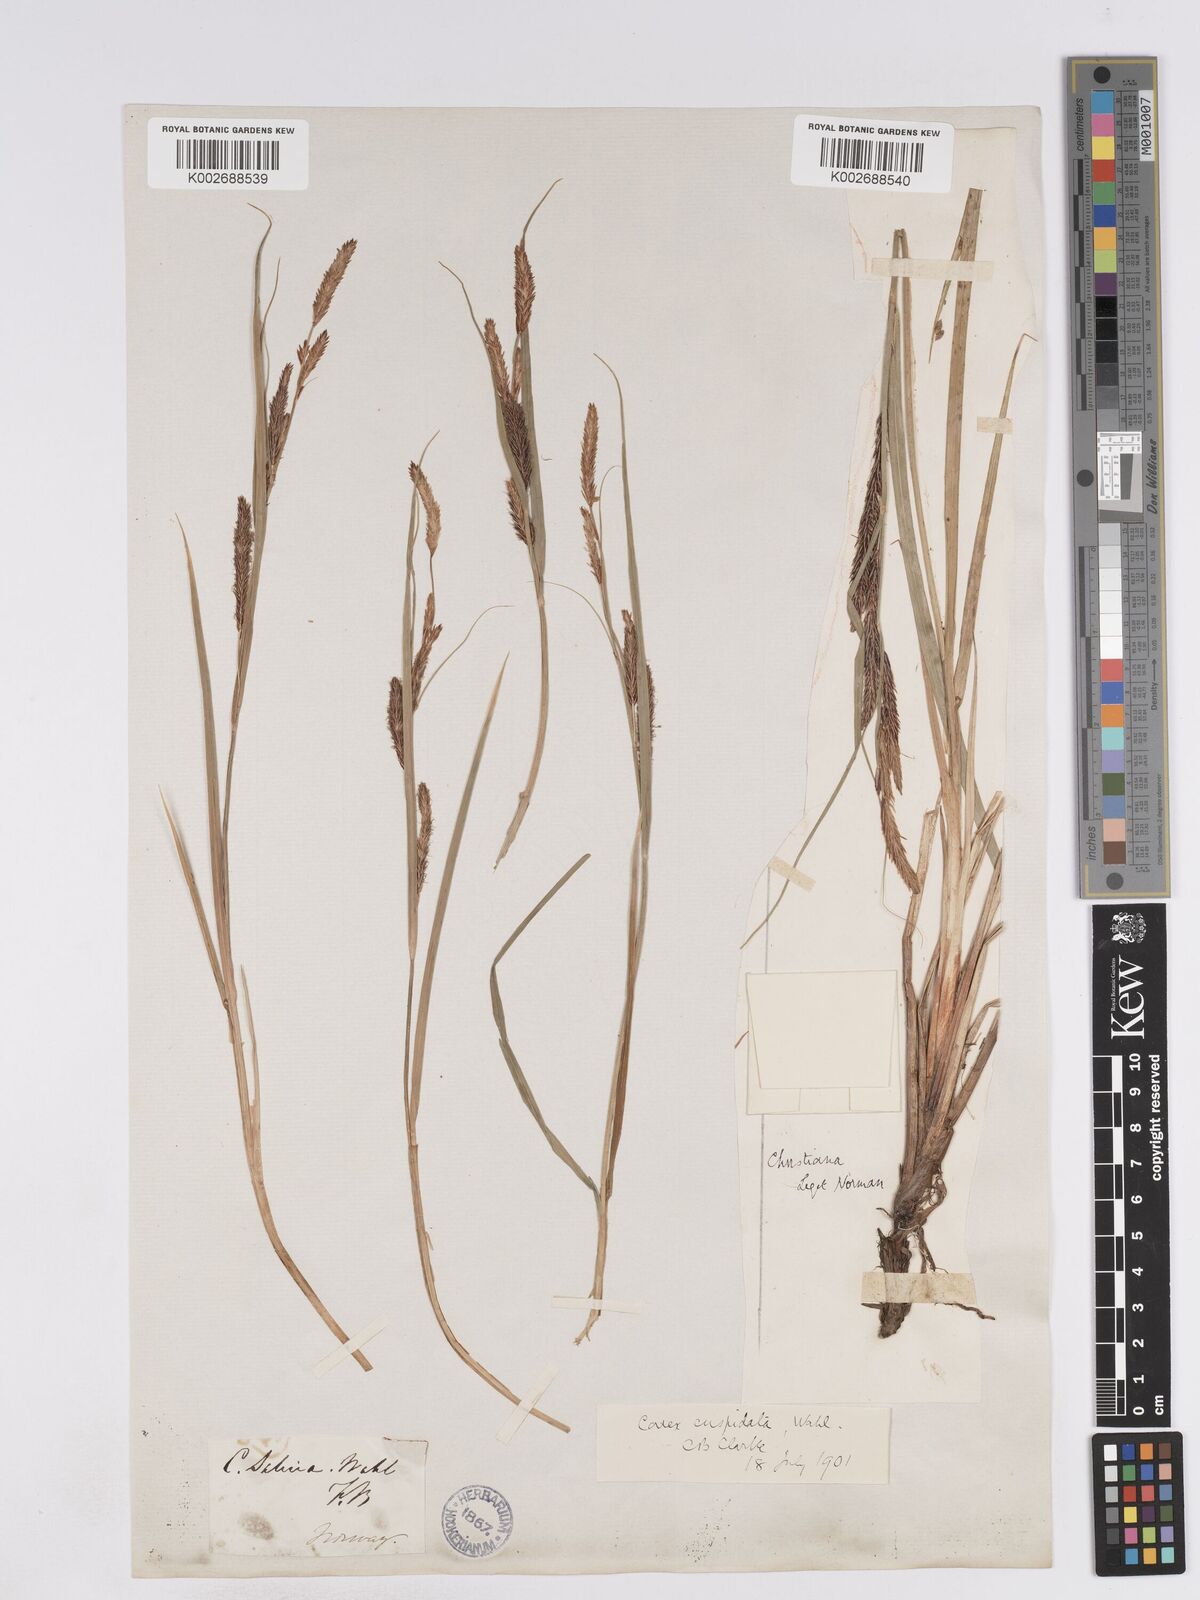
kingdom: Plantae
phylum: Tracheophyta
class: Liliopsida
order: Poales
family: Cyperaceae
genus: Carex
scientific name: Carex recta
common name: Estuarine sedge
